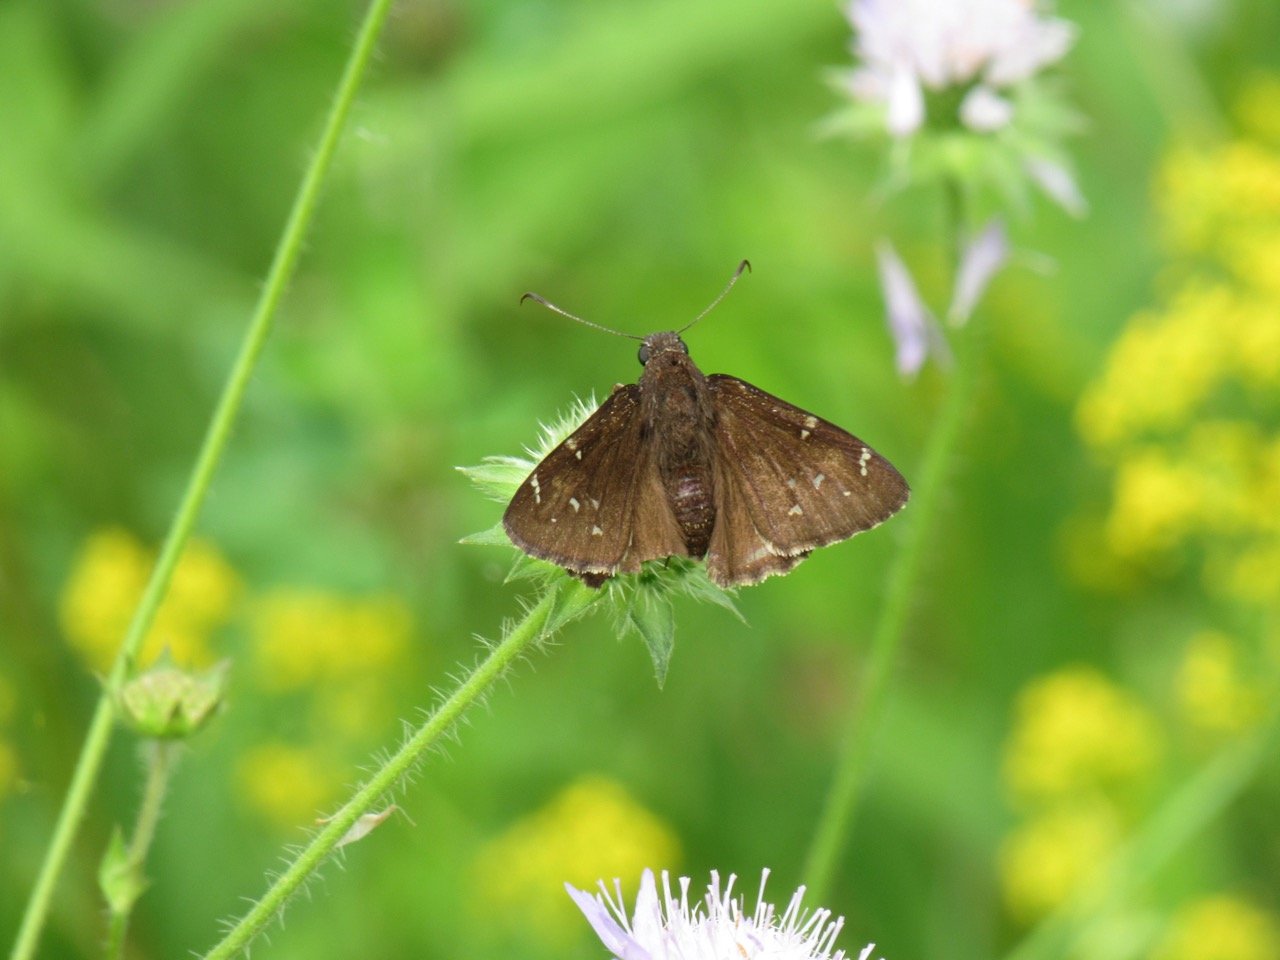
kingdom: Animalia
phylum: Arthropoda
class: Insecta
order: Lepidoptera
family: Hesperiidae
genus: Autochton
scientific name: Autochton
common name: Northern Cloudywing
